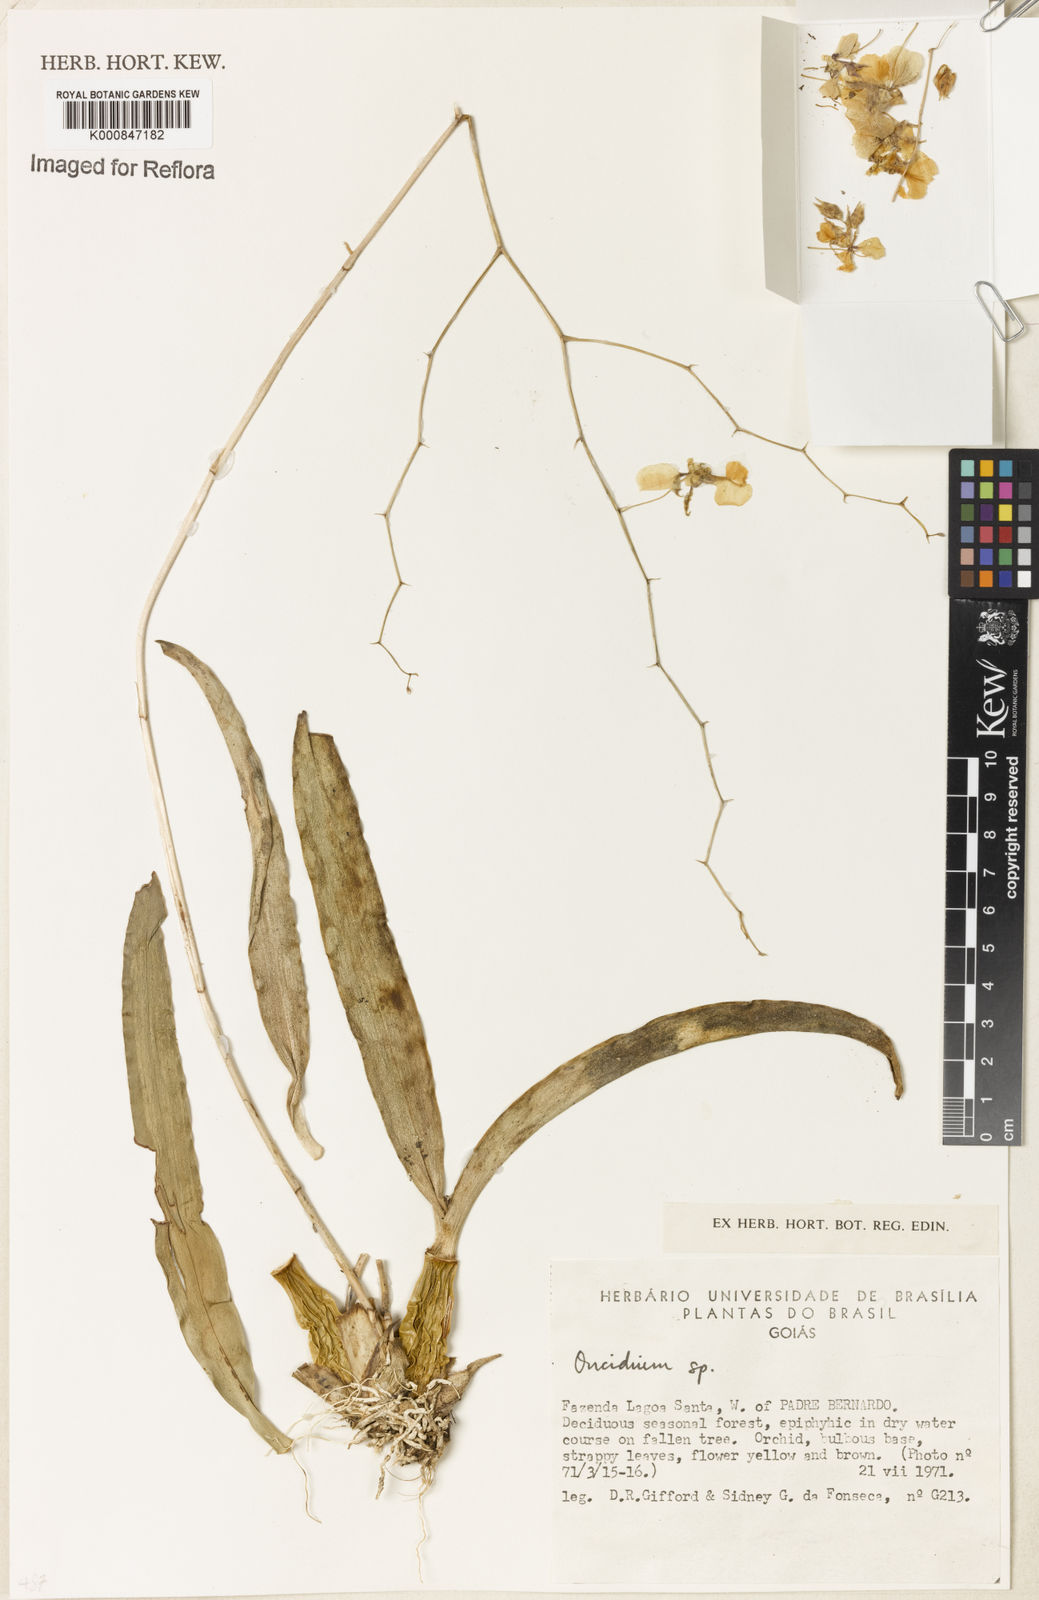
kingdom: Plantae
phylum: Tracheophyta
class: Liliopsida
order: Asparagales
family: Orchidaceae
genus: Oncidium
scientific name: Oncidium
